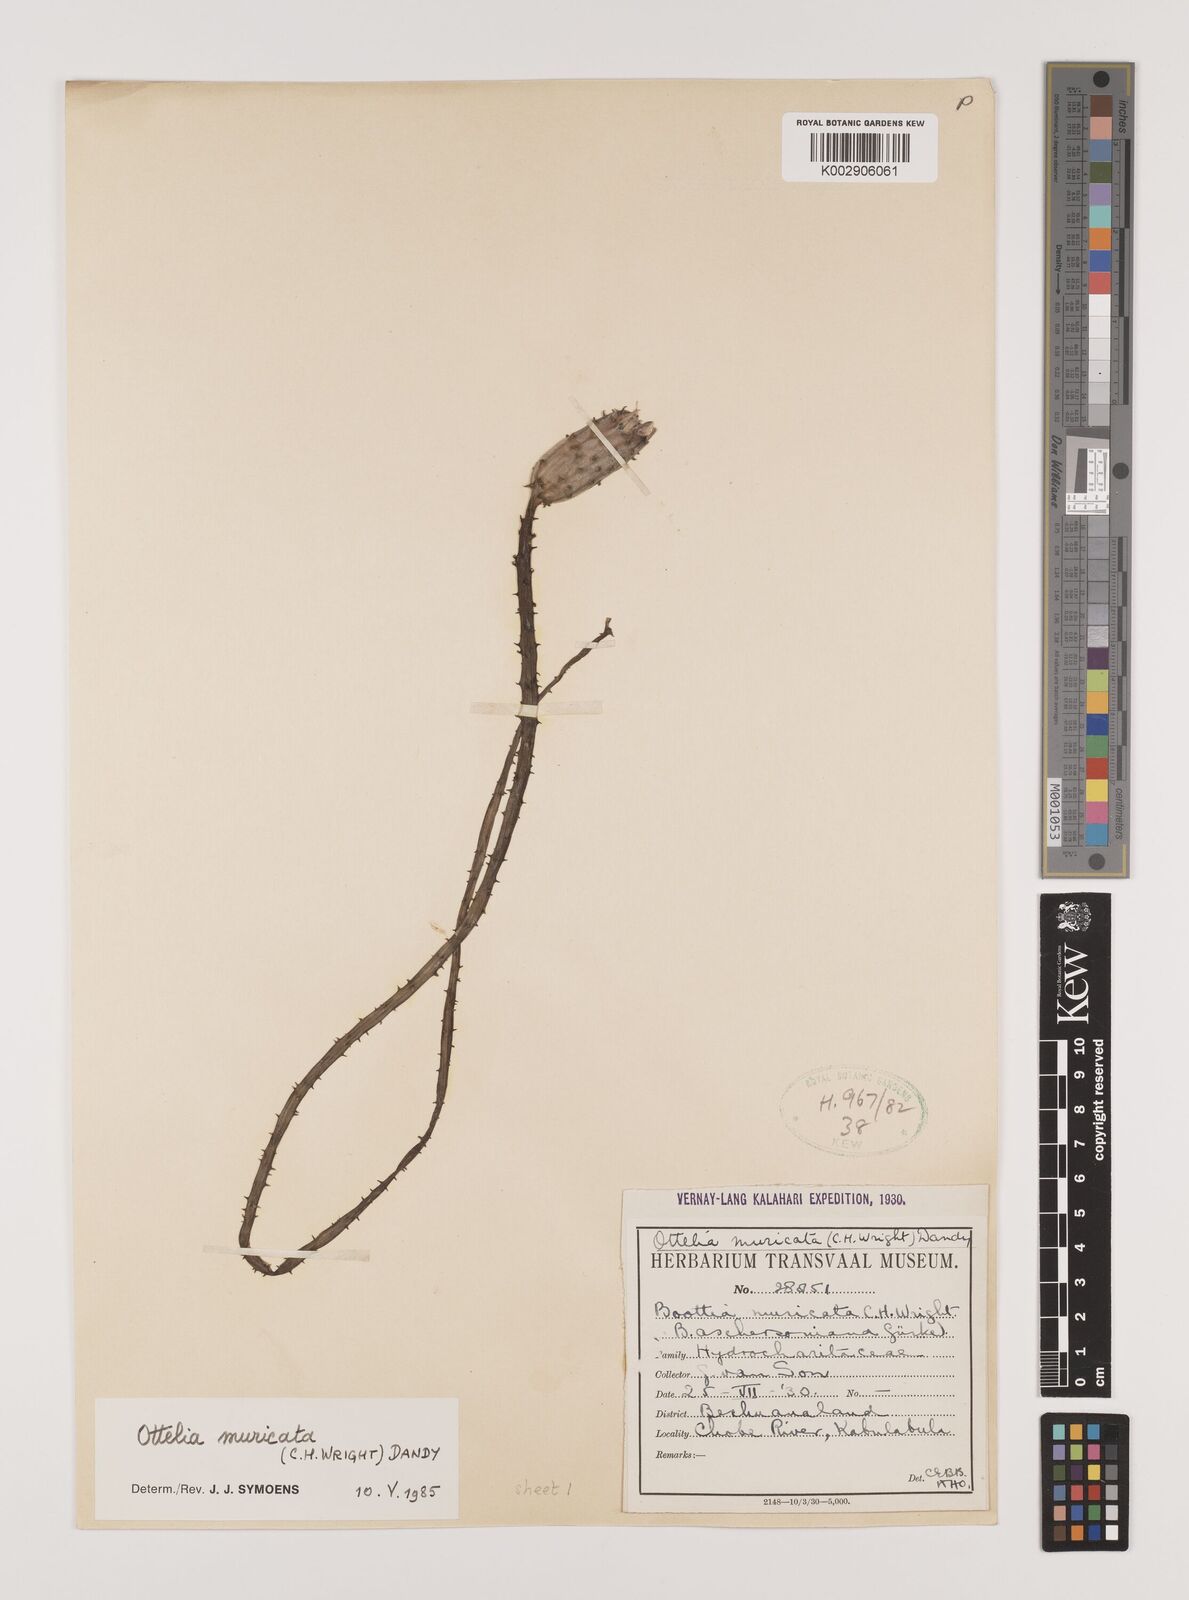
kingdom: Plantae
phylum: Tracheophyta
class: Liliopsida
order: Alismatales
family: Hydrocharitaceae
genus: Ottelia
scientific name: Ottelia muricata
